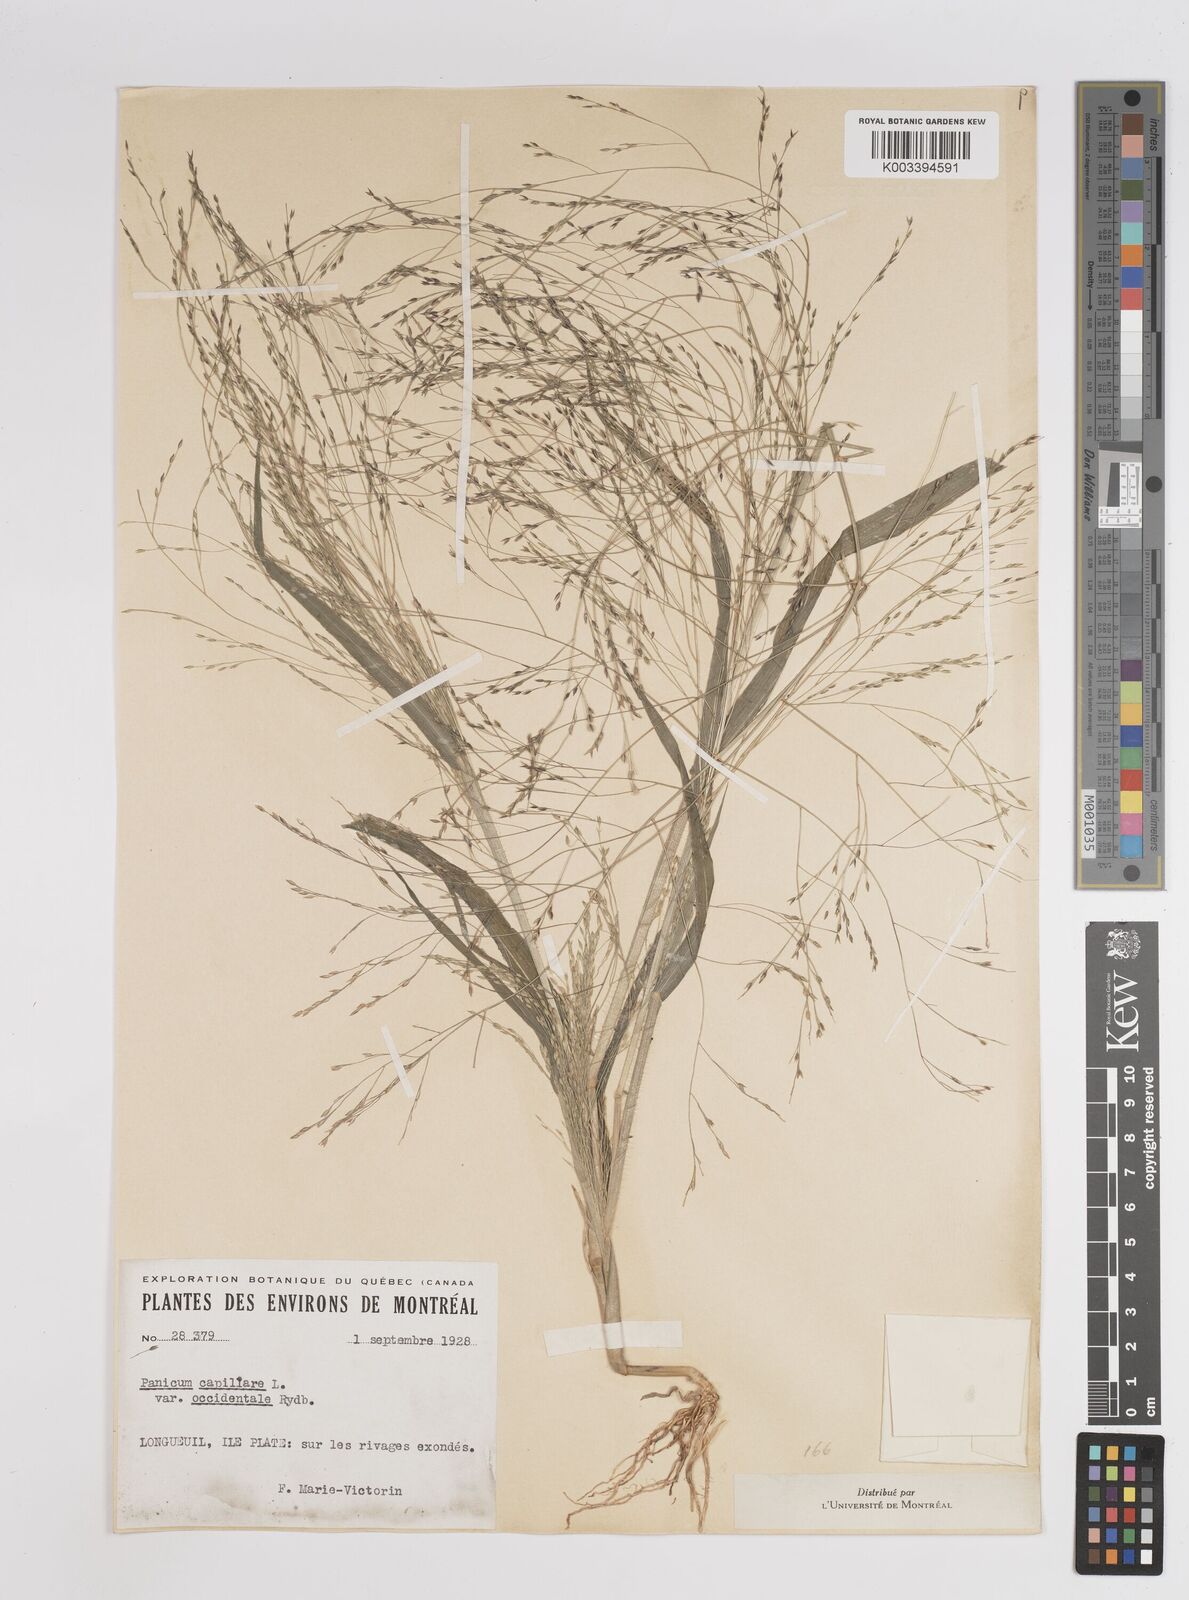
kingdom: Plantae
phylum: Tracheophyta
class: Liliopsida
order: Poales
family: Poaceae
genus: Panicum
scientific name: Panicum capillare
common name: Witch-grass
